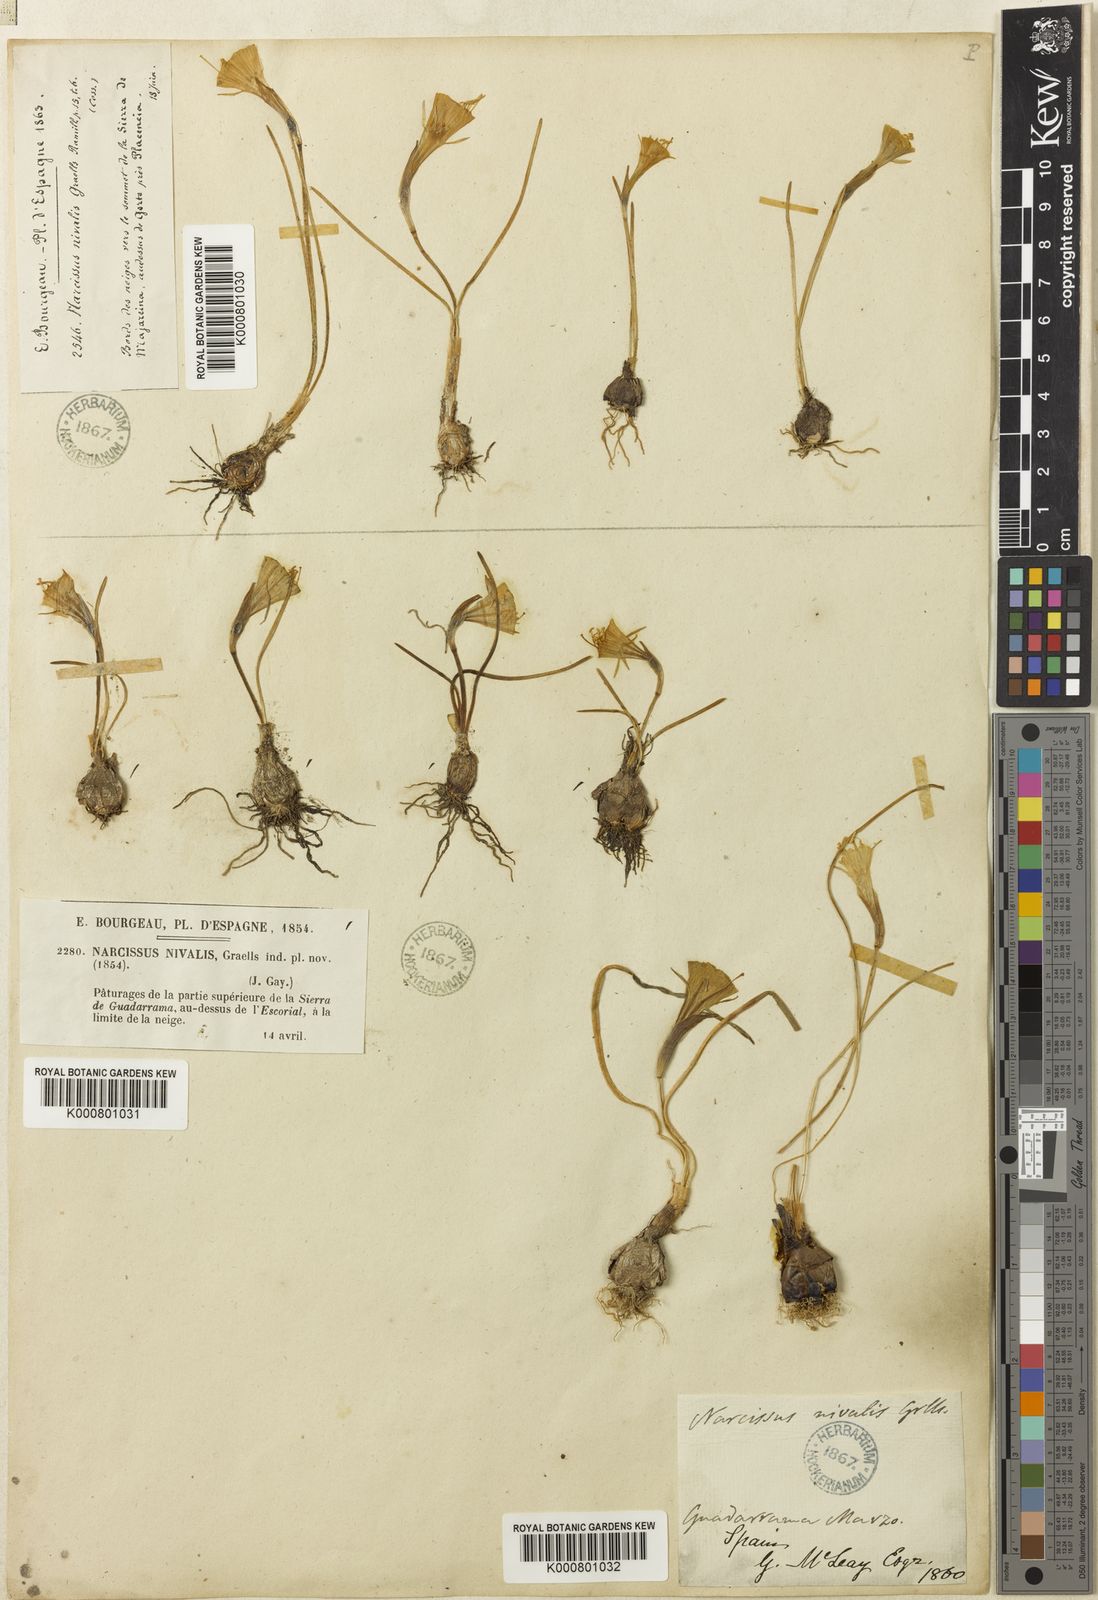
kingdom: Plantae
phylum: Tracheophyta
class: Liliopsida
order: Asparagales
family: Amaryllidaceae
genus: Narcissus
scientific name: Narcissus bulbocodium
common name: Hoop-petticoat daffodil
